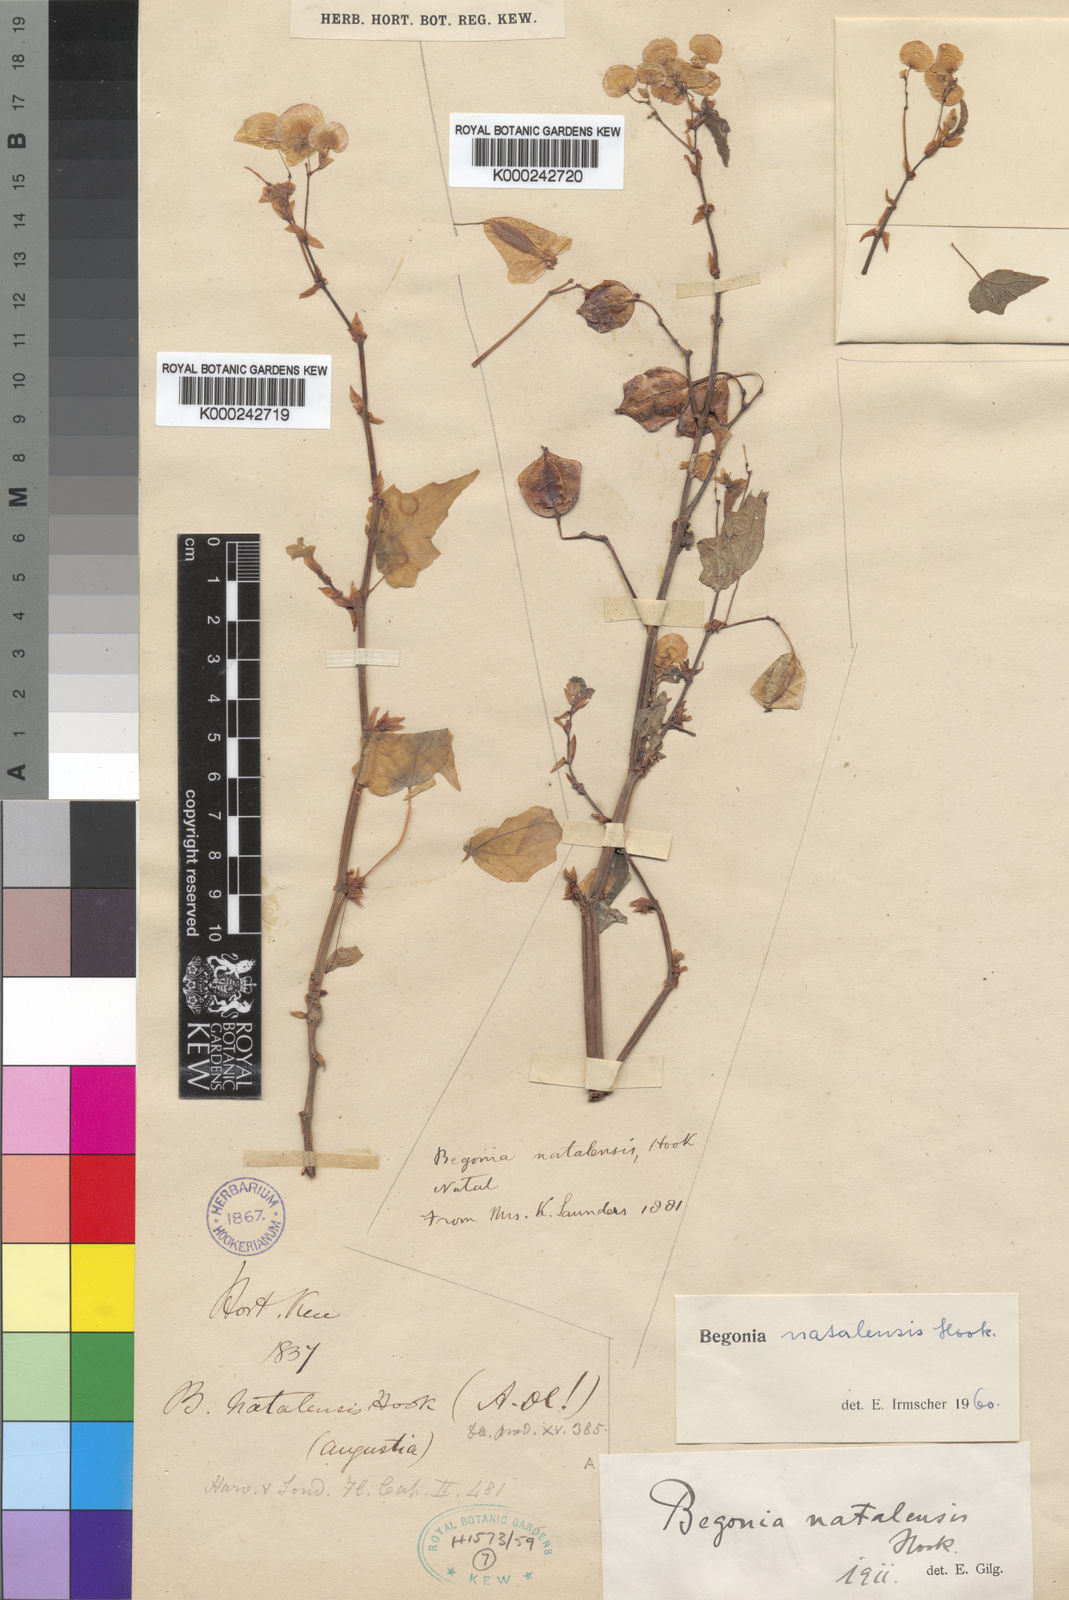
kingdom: Plantae
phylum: Tracheophyta
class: Magnoliopsida
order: Cucurbitales
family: Begoniaceae
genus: Begonia
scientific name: Begonia dregei
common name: Grape-leaf begonia
